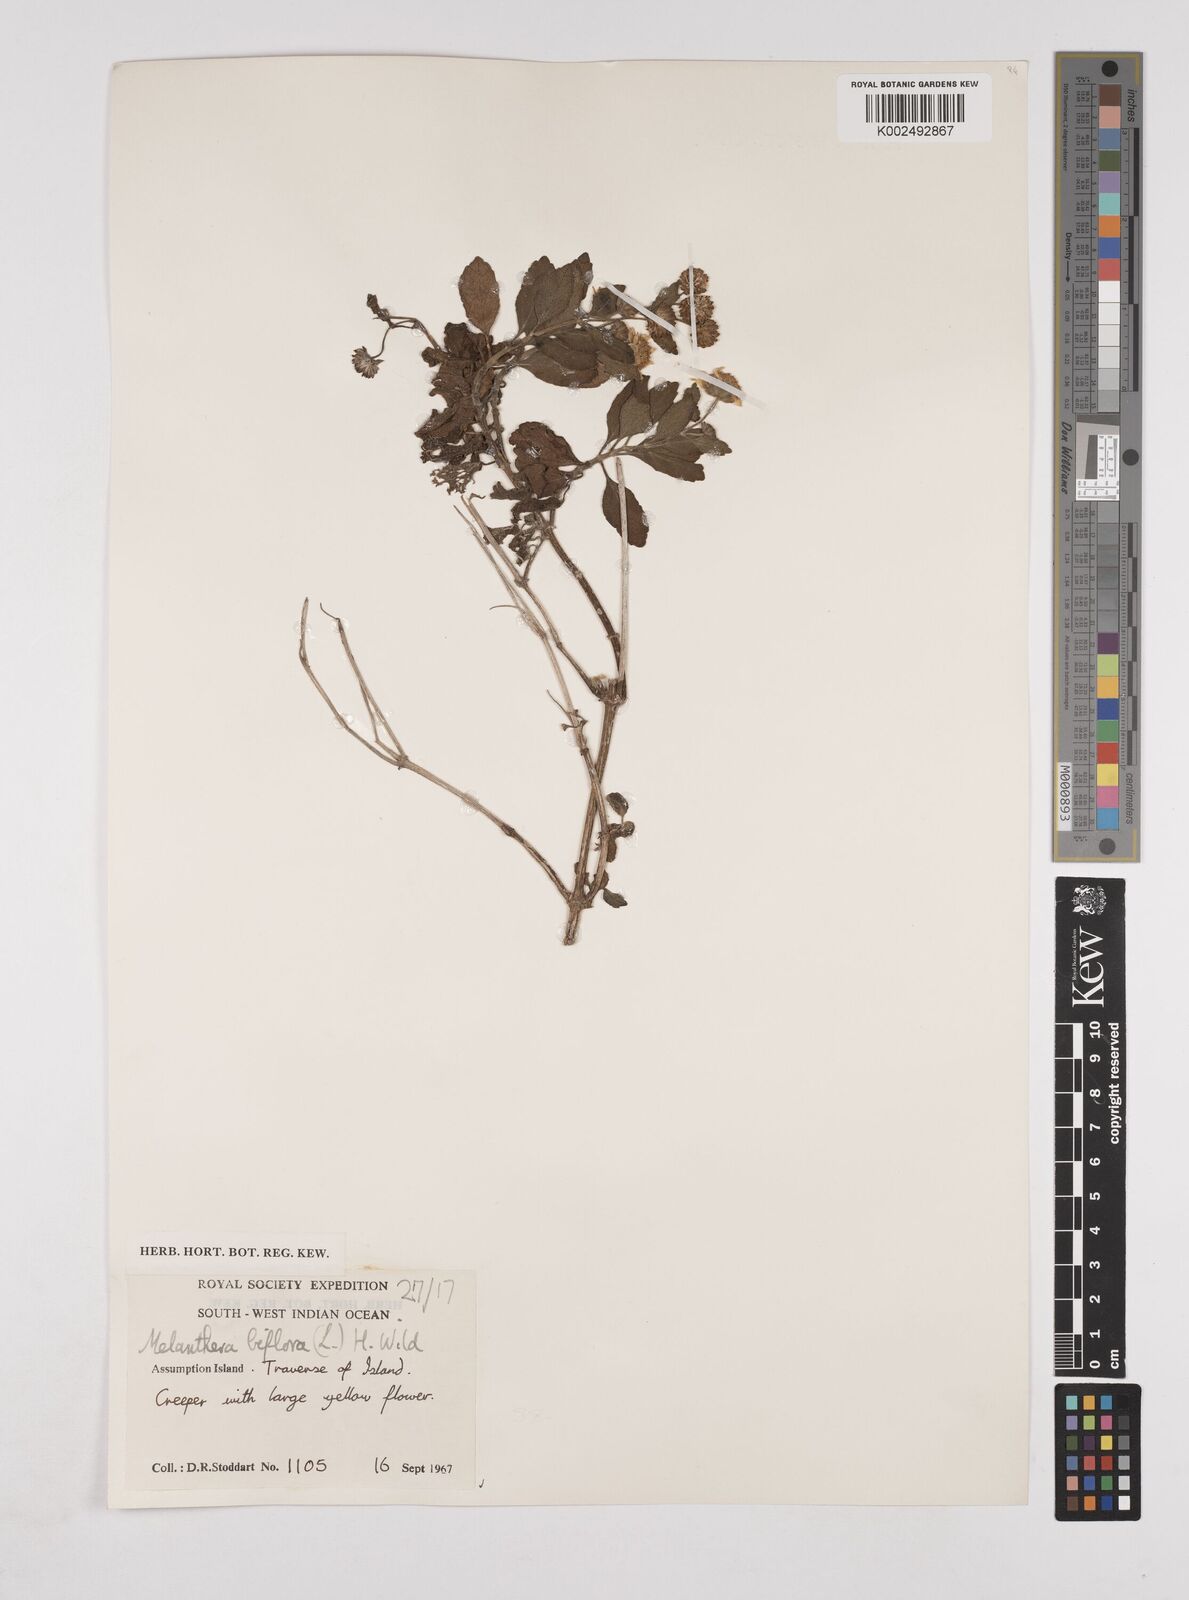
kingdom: Plantae
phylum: Tracheophyta
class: Magnoliopsida
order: Asterales
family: Asteraceae
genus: Wollastonia
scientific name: Wollastonia biflora
